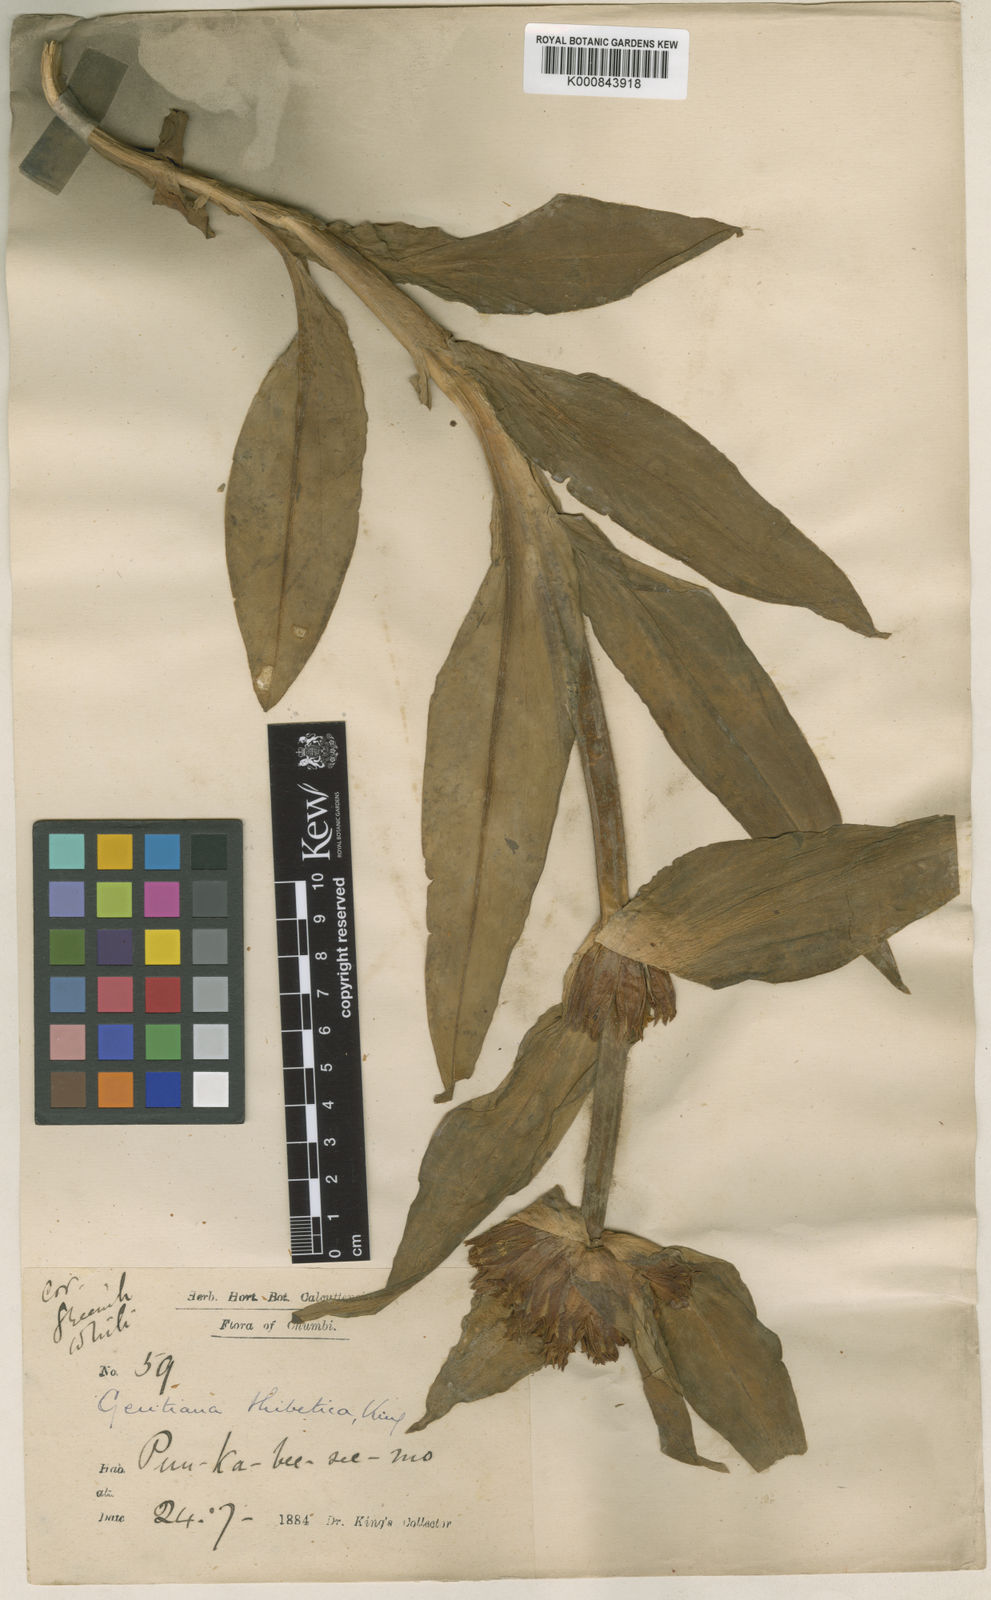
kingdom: Plantae
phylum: Tracheophyta
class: Magnoliopsida
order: Gentianales
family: Gentianaceae
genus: Gentiana
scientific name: Gentiana tibetica
